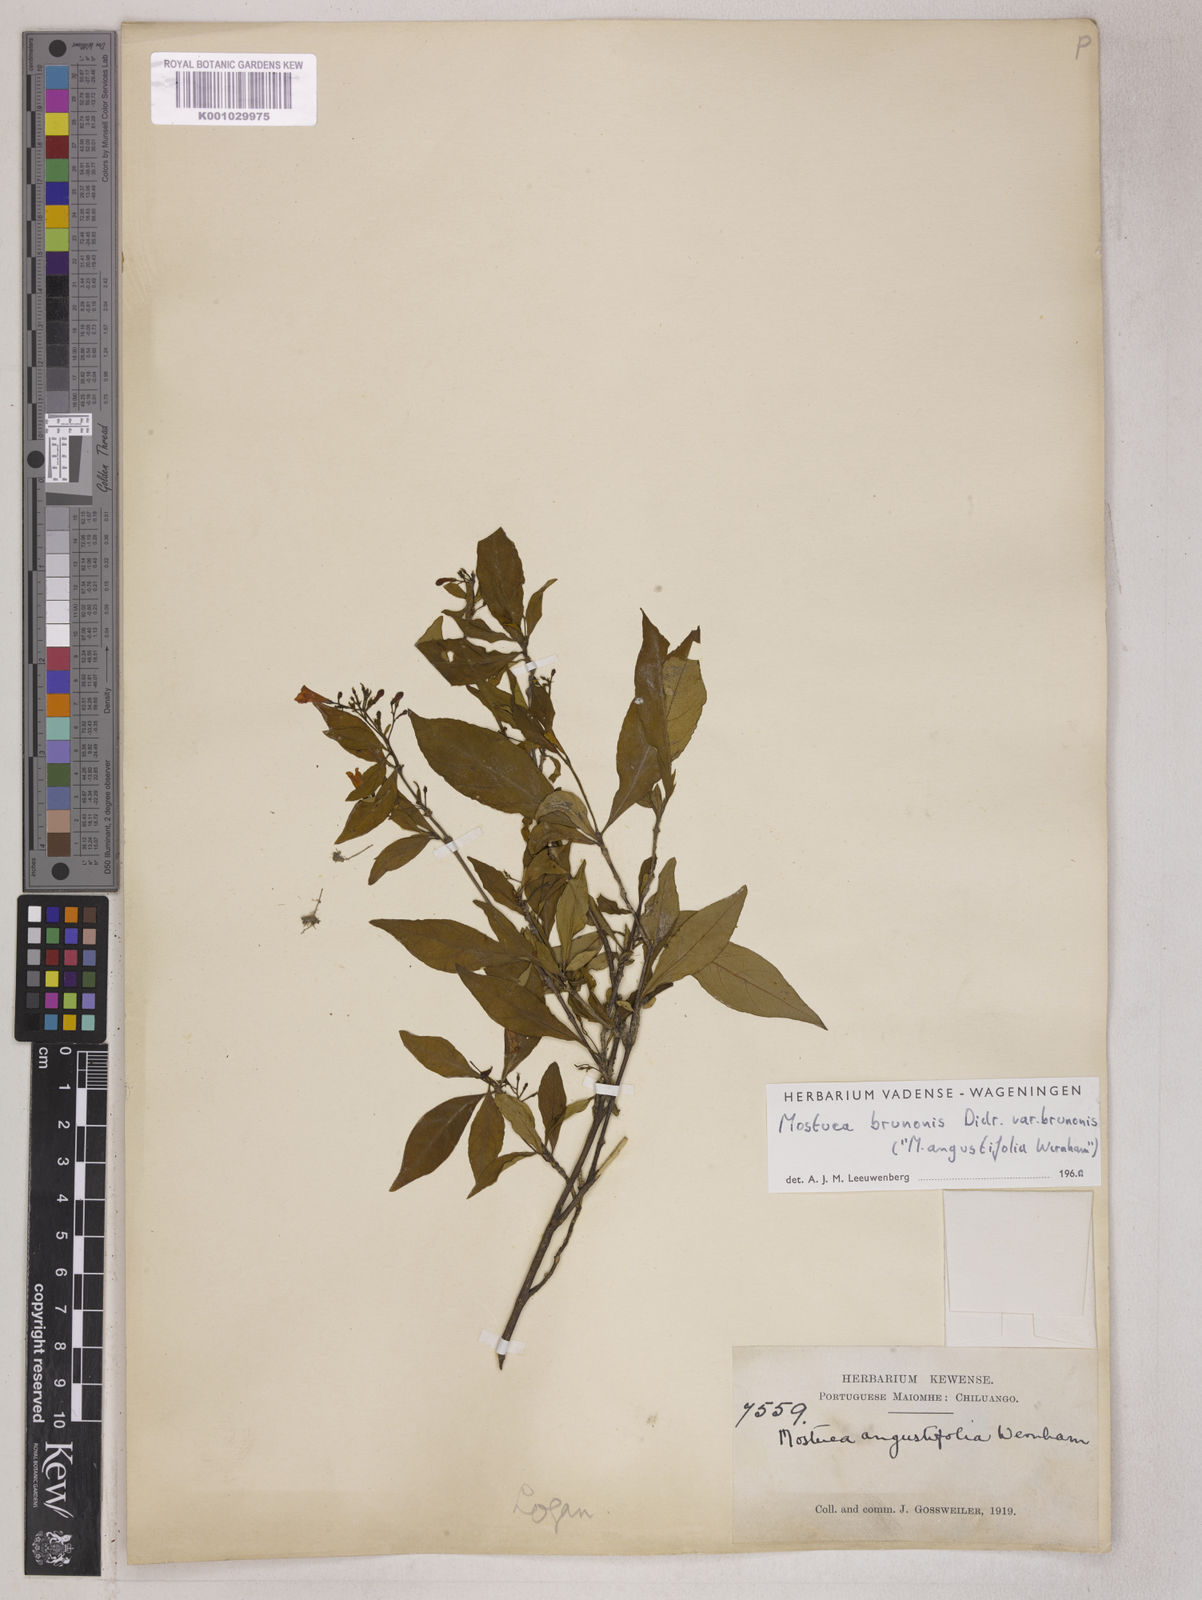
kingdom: Plantae
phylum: Tracheophyta
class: Magnoliopsida
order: Gentianales
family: Gelsemiaceae
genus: Mostuea
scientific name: Mostuea brunonis
